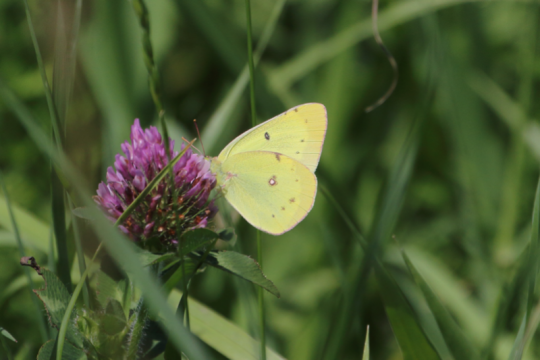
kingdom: Animalia
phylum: Arthropoda
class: Insecta
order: Lepidoptera
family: Pieridae
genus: Colias
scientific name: Colias philodice
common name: Clouded Sulphur
